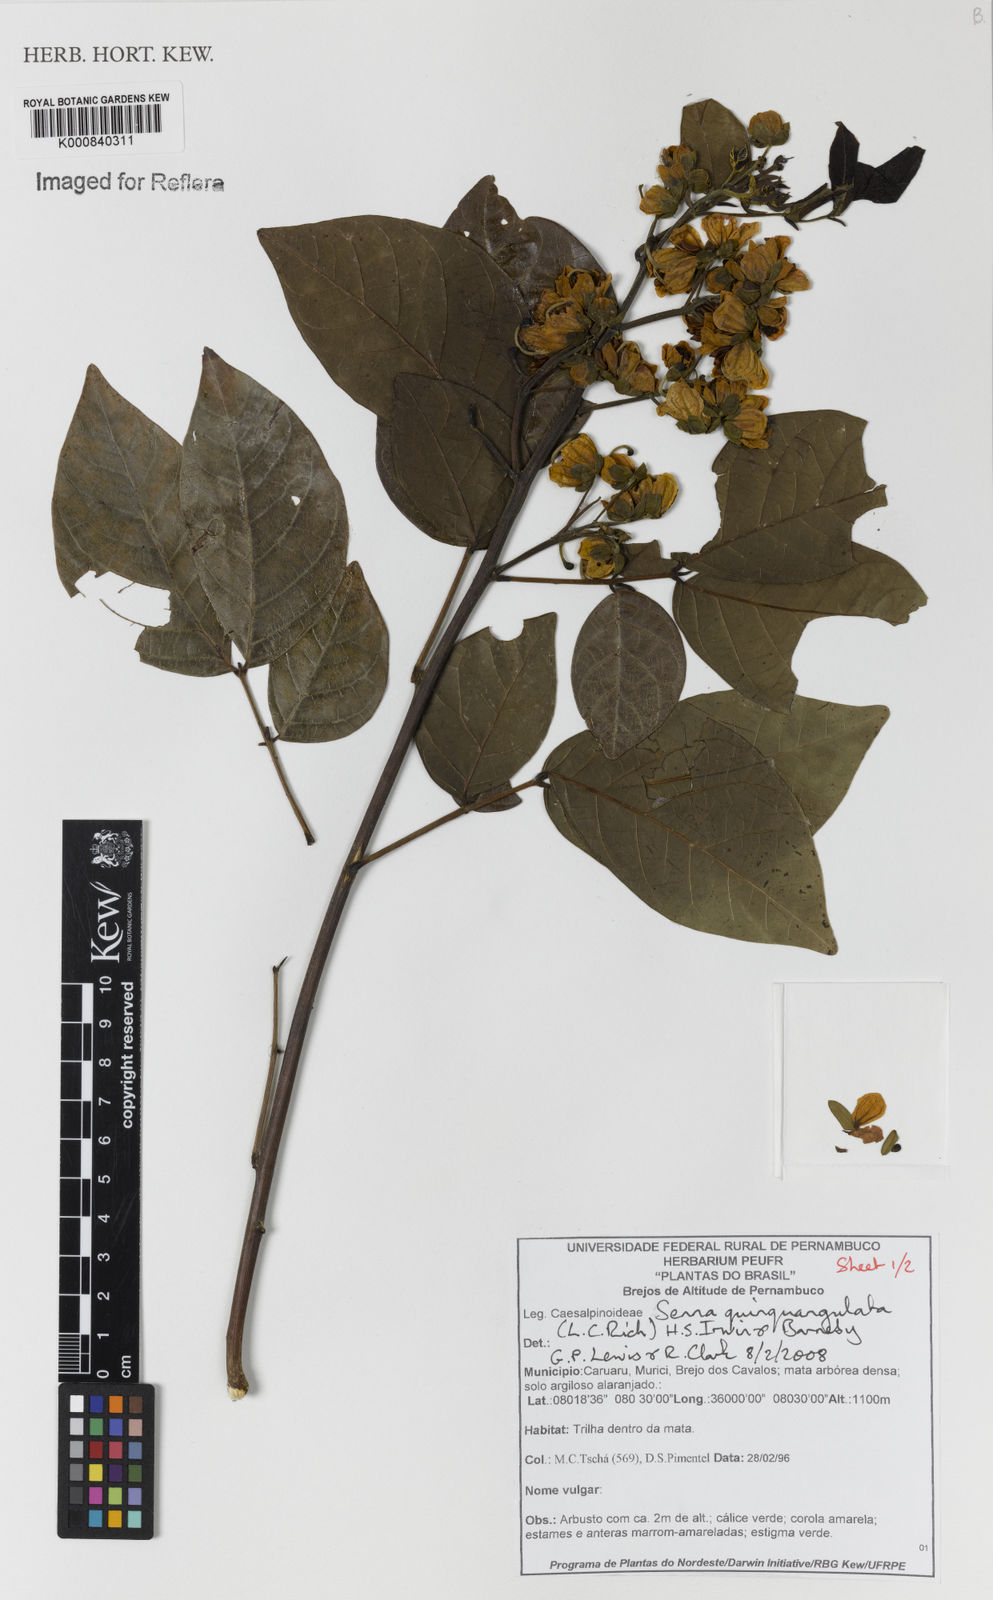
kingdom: Plantae
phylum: Tracheophyta
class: Magnoliopsida
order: Fabales
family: Fabaceae
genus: Senna
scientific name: Senna
